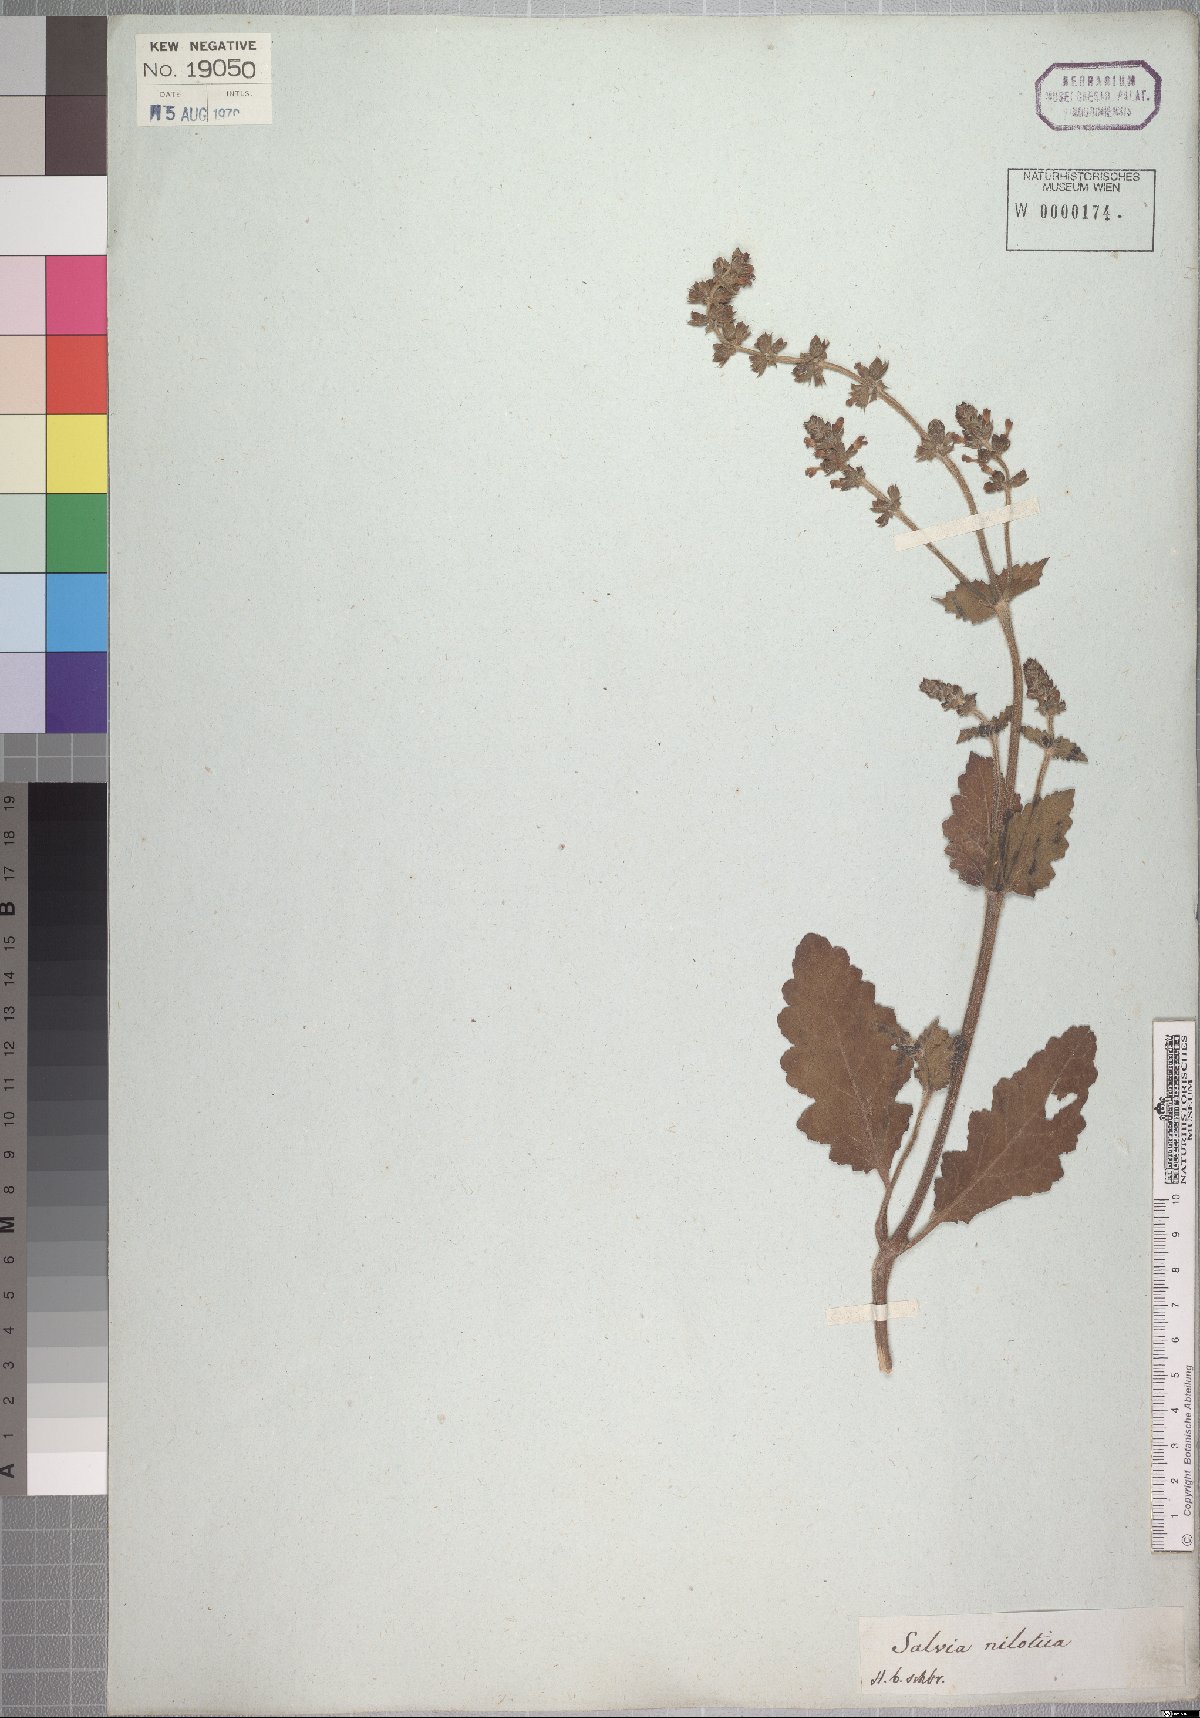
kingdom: Plantae
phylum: Tracheophyta
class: Magnoliopsida
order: Lamiales
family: Lamiaceae
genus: Salvia
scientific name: Salvia nilotica
